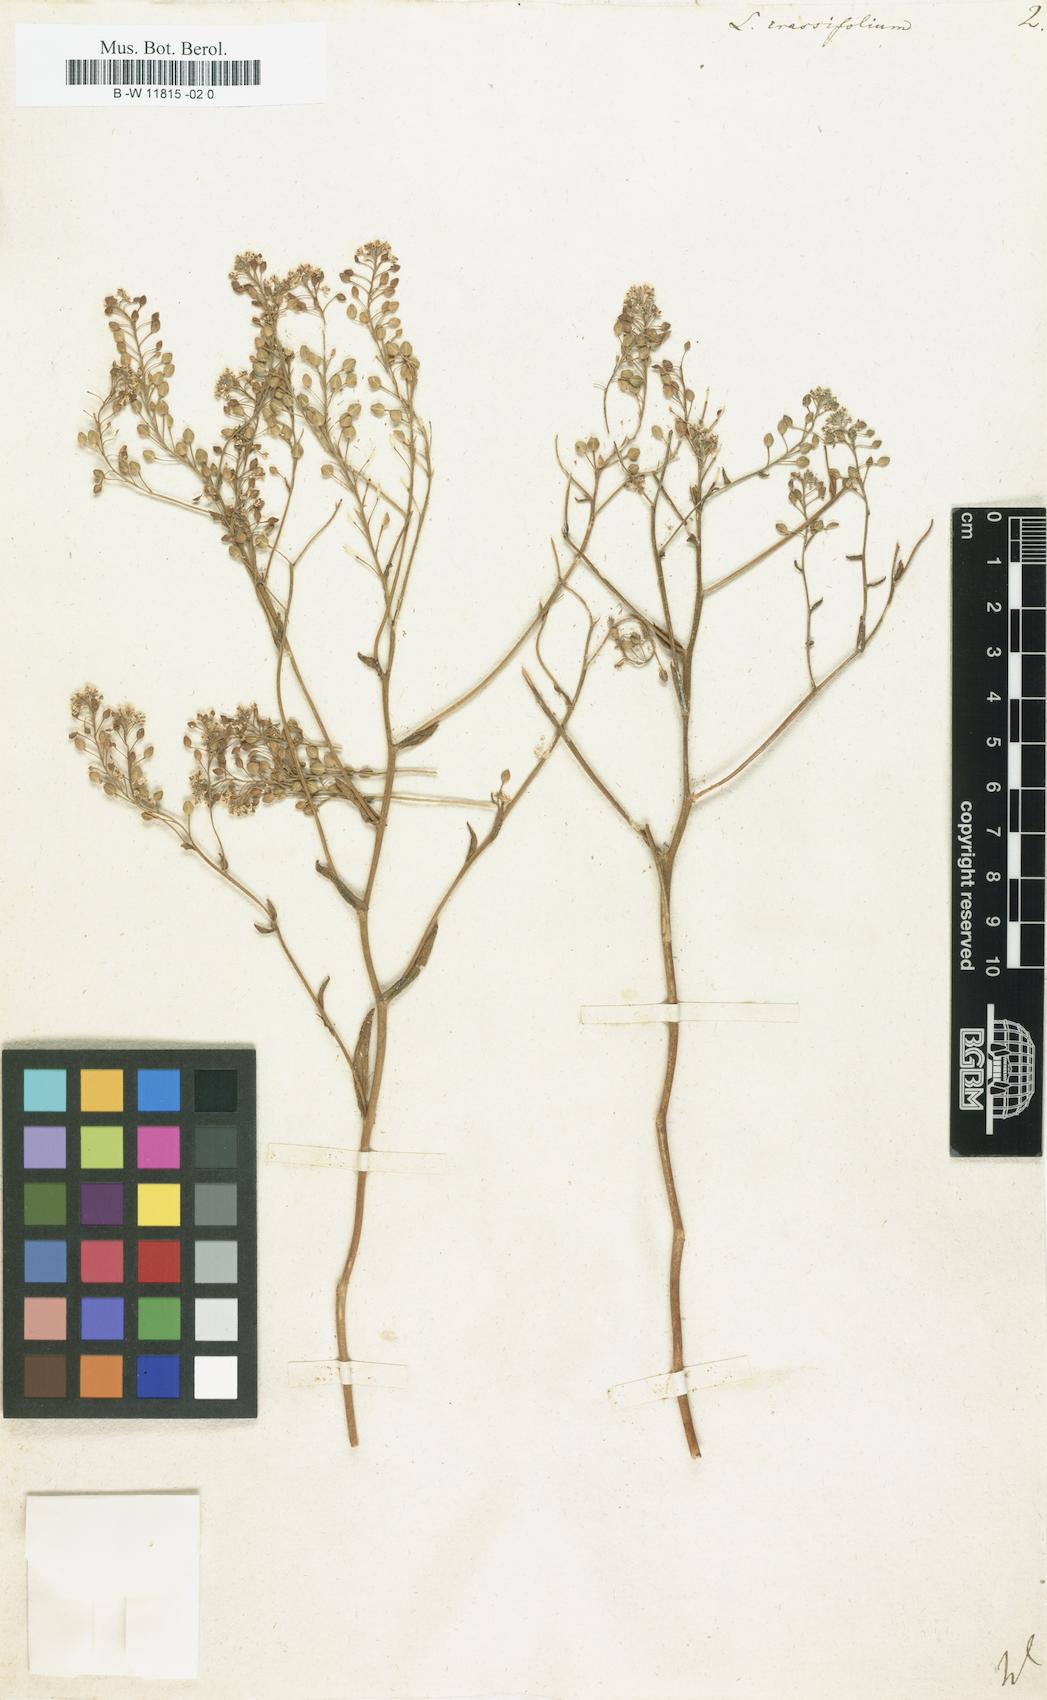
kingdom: Plantae
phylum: Tracheophyta
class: Magnoliopsida
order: Brassicales
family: Brassicaceae
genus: Lepidium
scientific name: Lepidium cartilagineum
